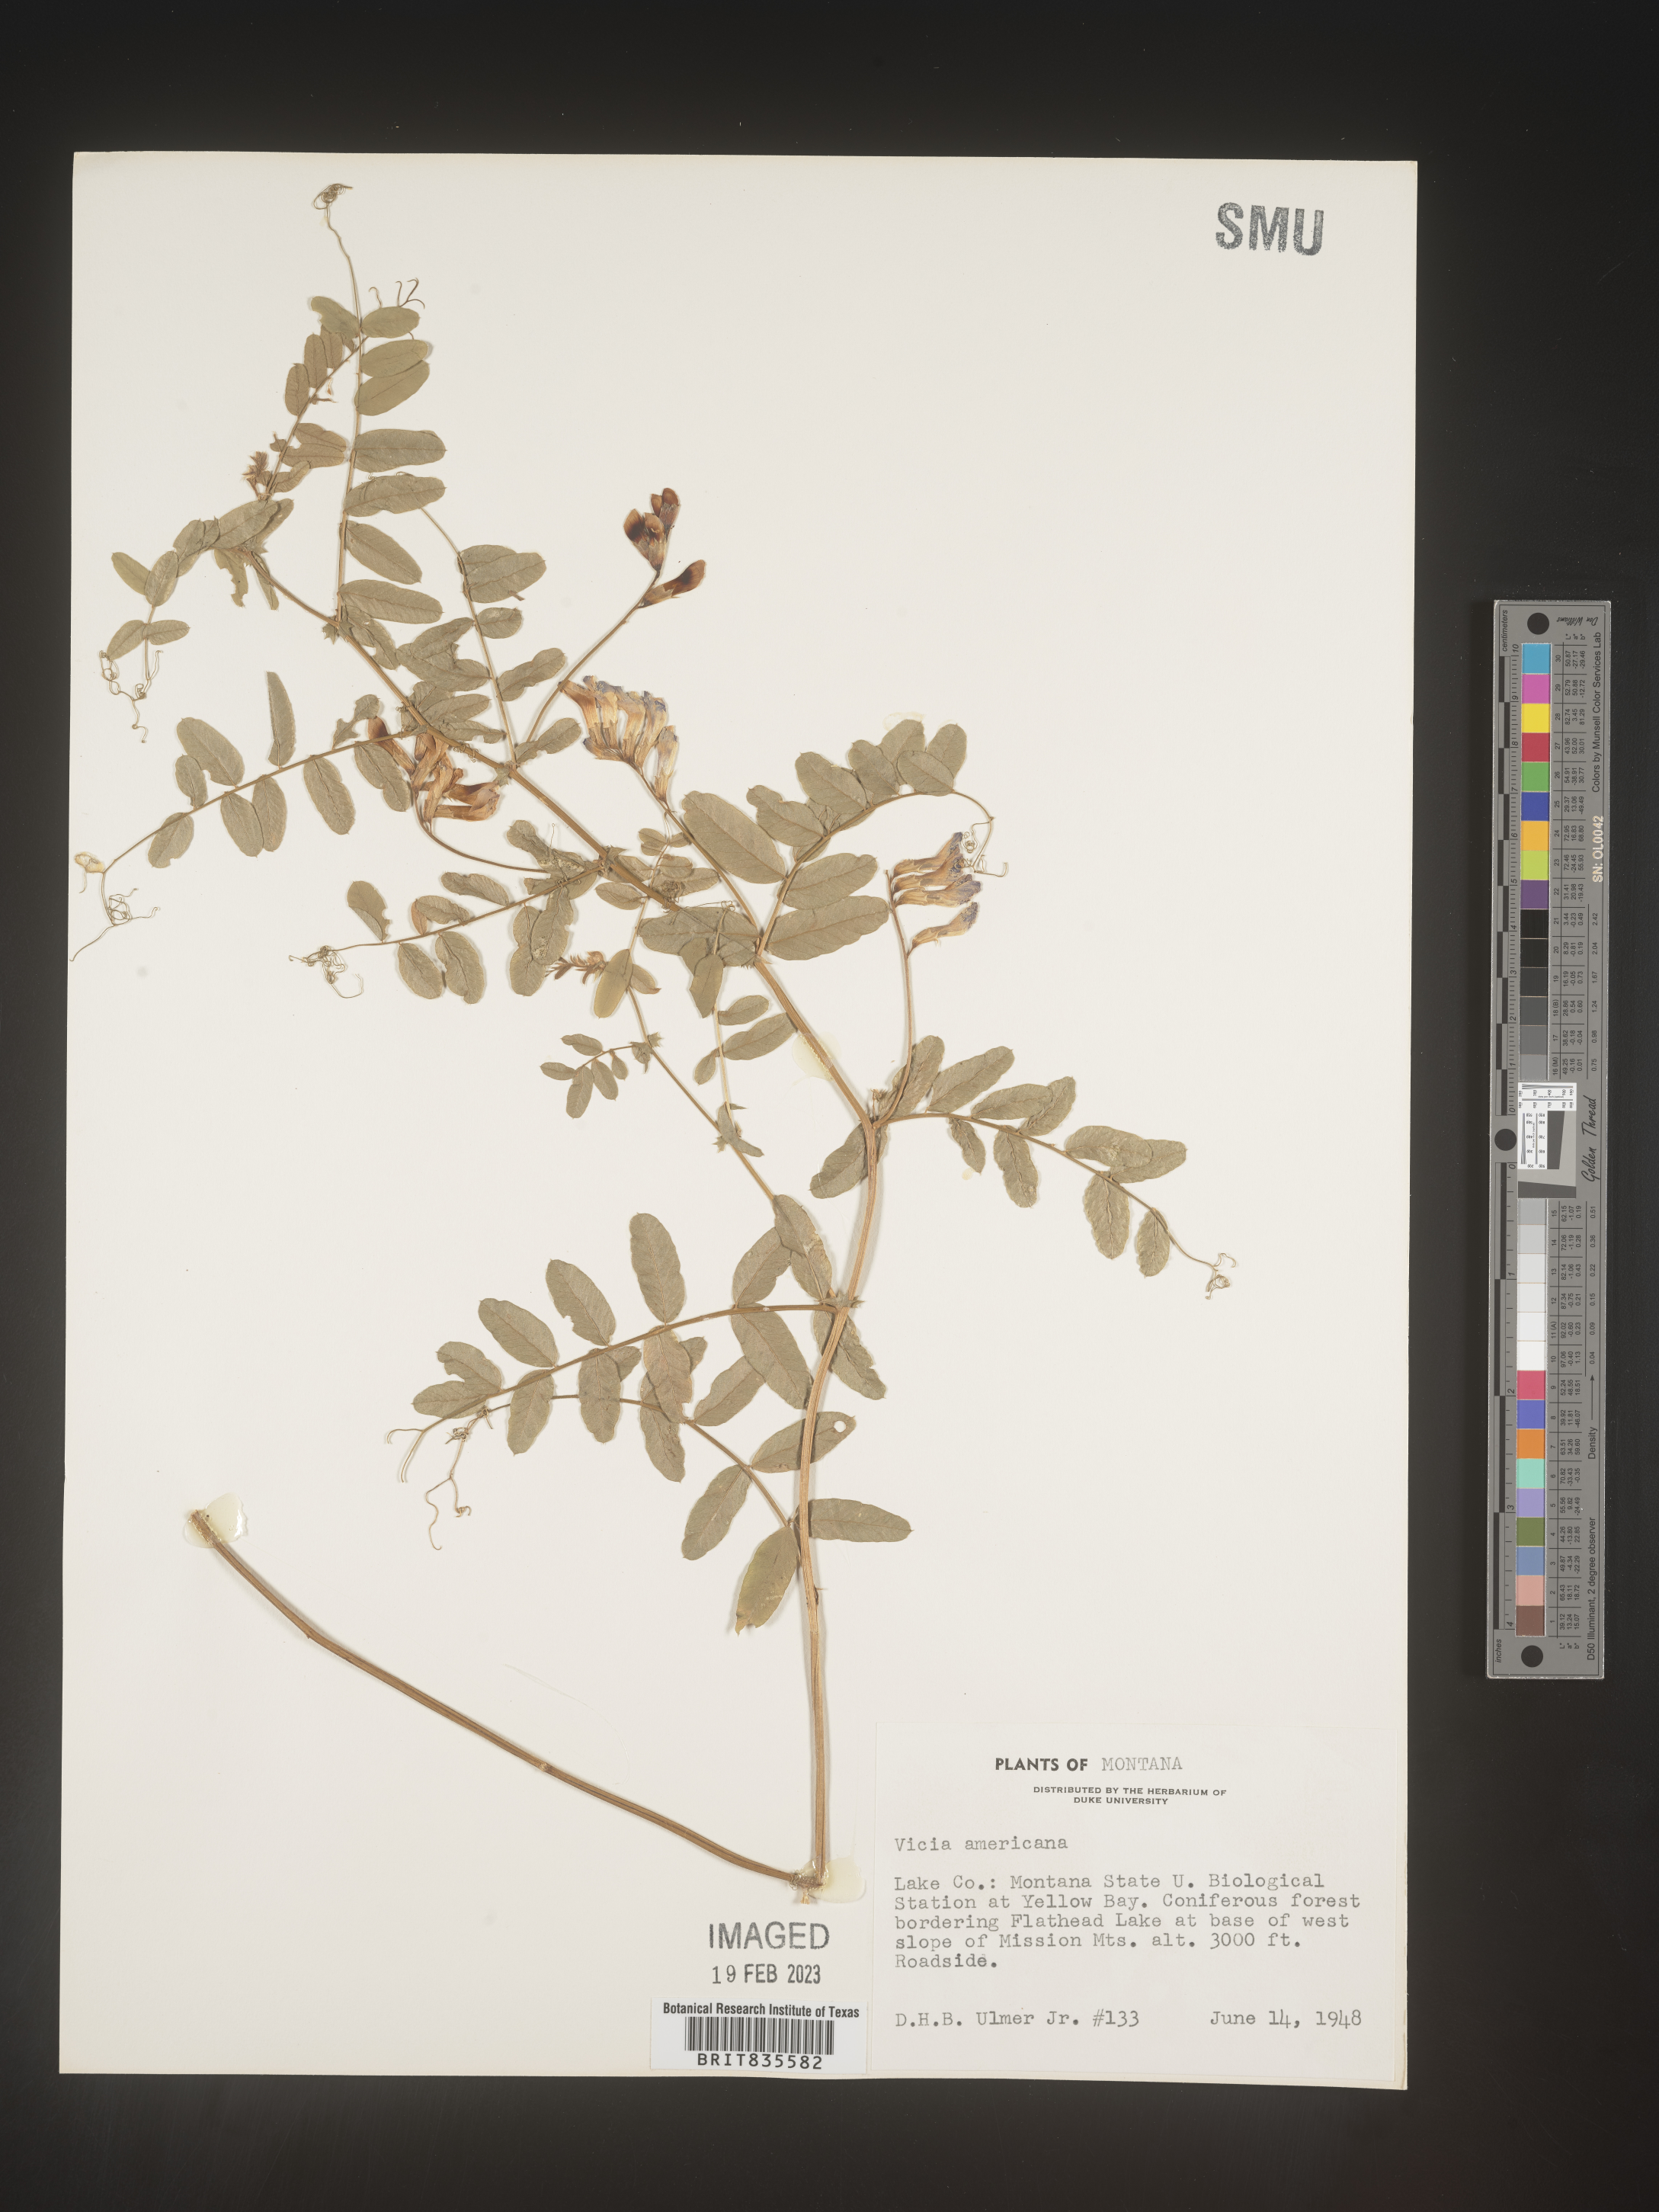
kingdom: Plantae
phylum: Tracheophyta
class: Magnoliopsida
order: Fabales
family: Fabaceae
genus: Vicia
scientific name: Vicia americana
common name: American vetch
